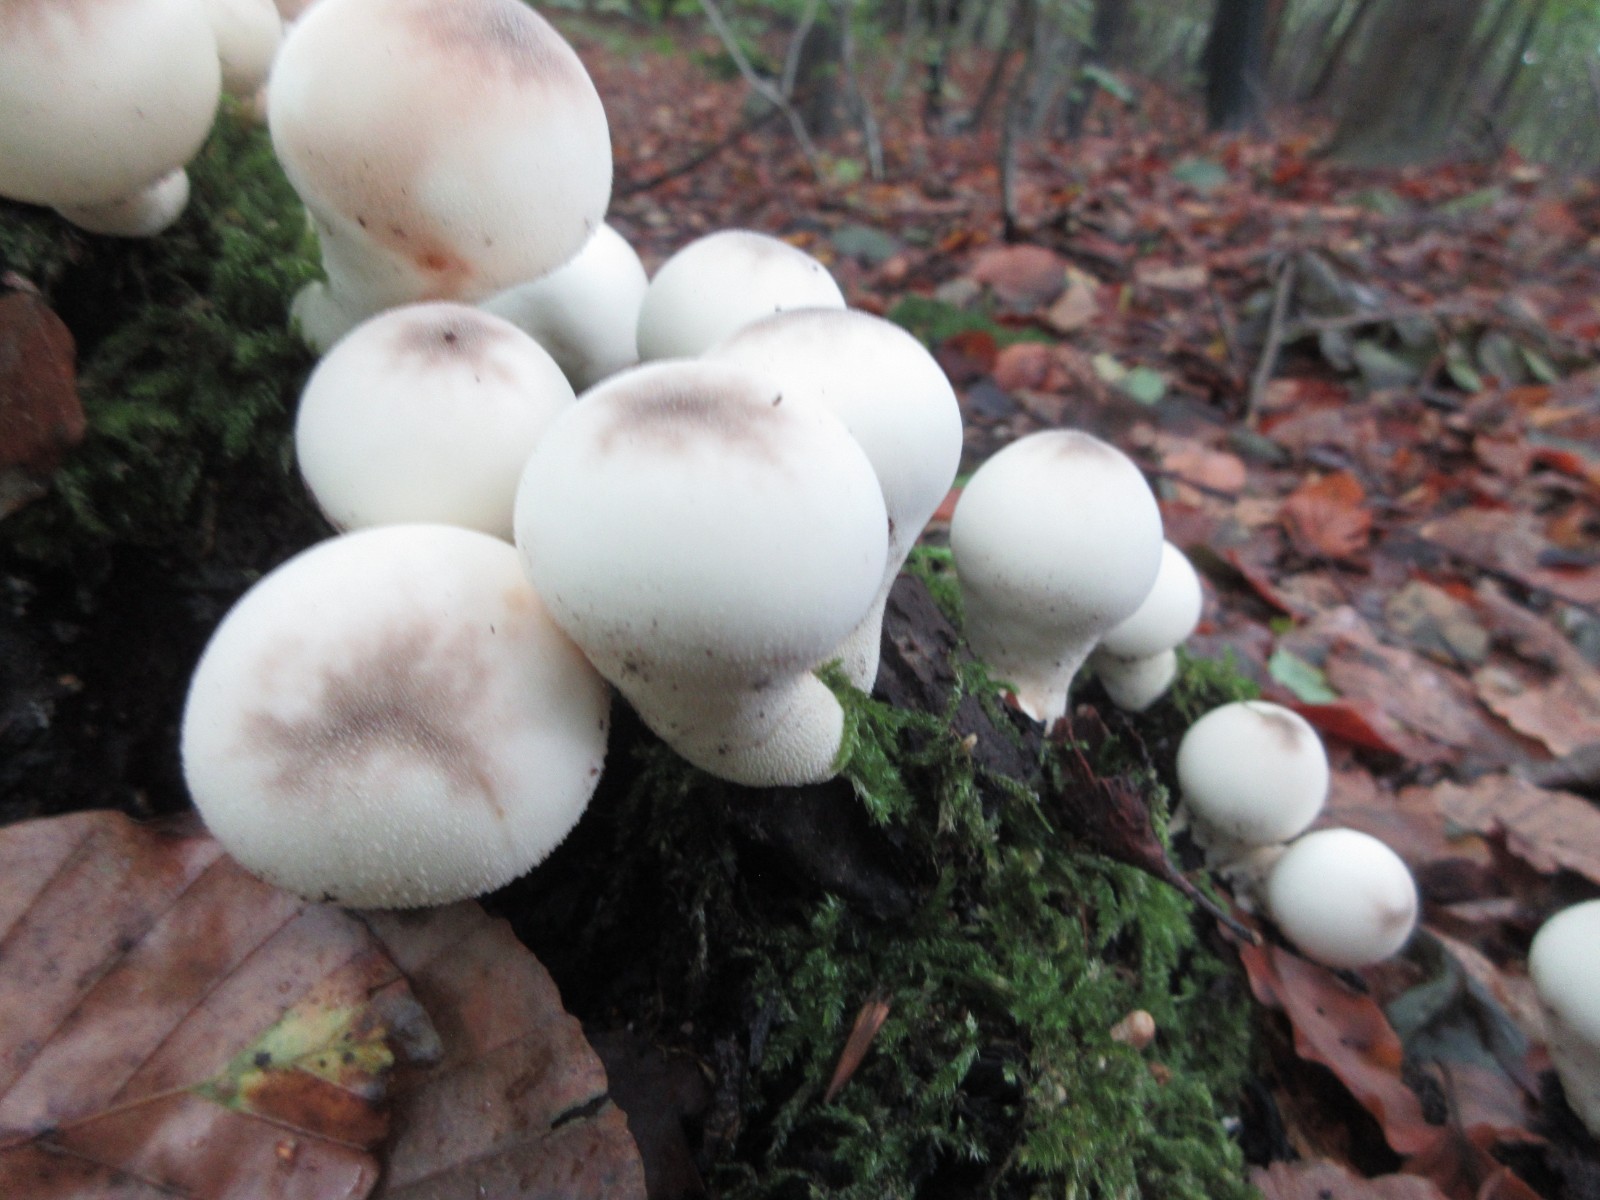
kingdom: Fungi
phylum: Basidiomycota
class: Agaricomycetes
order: Agaricales
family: Lycoperdaceae
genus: Apioperdon
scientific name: Apioperdon pyriforme
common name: pære-støvbold
